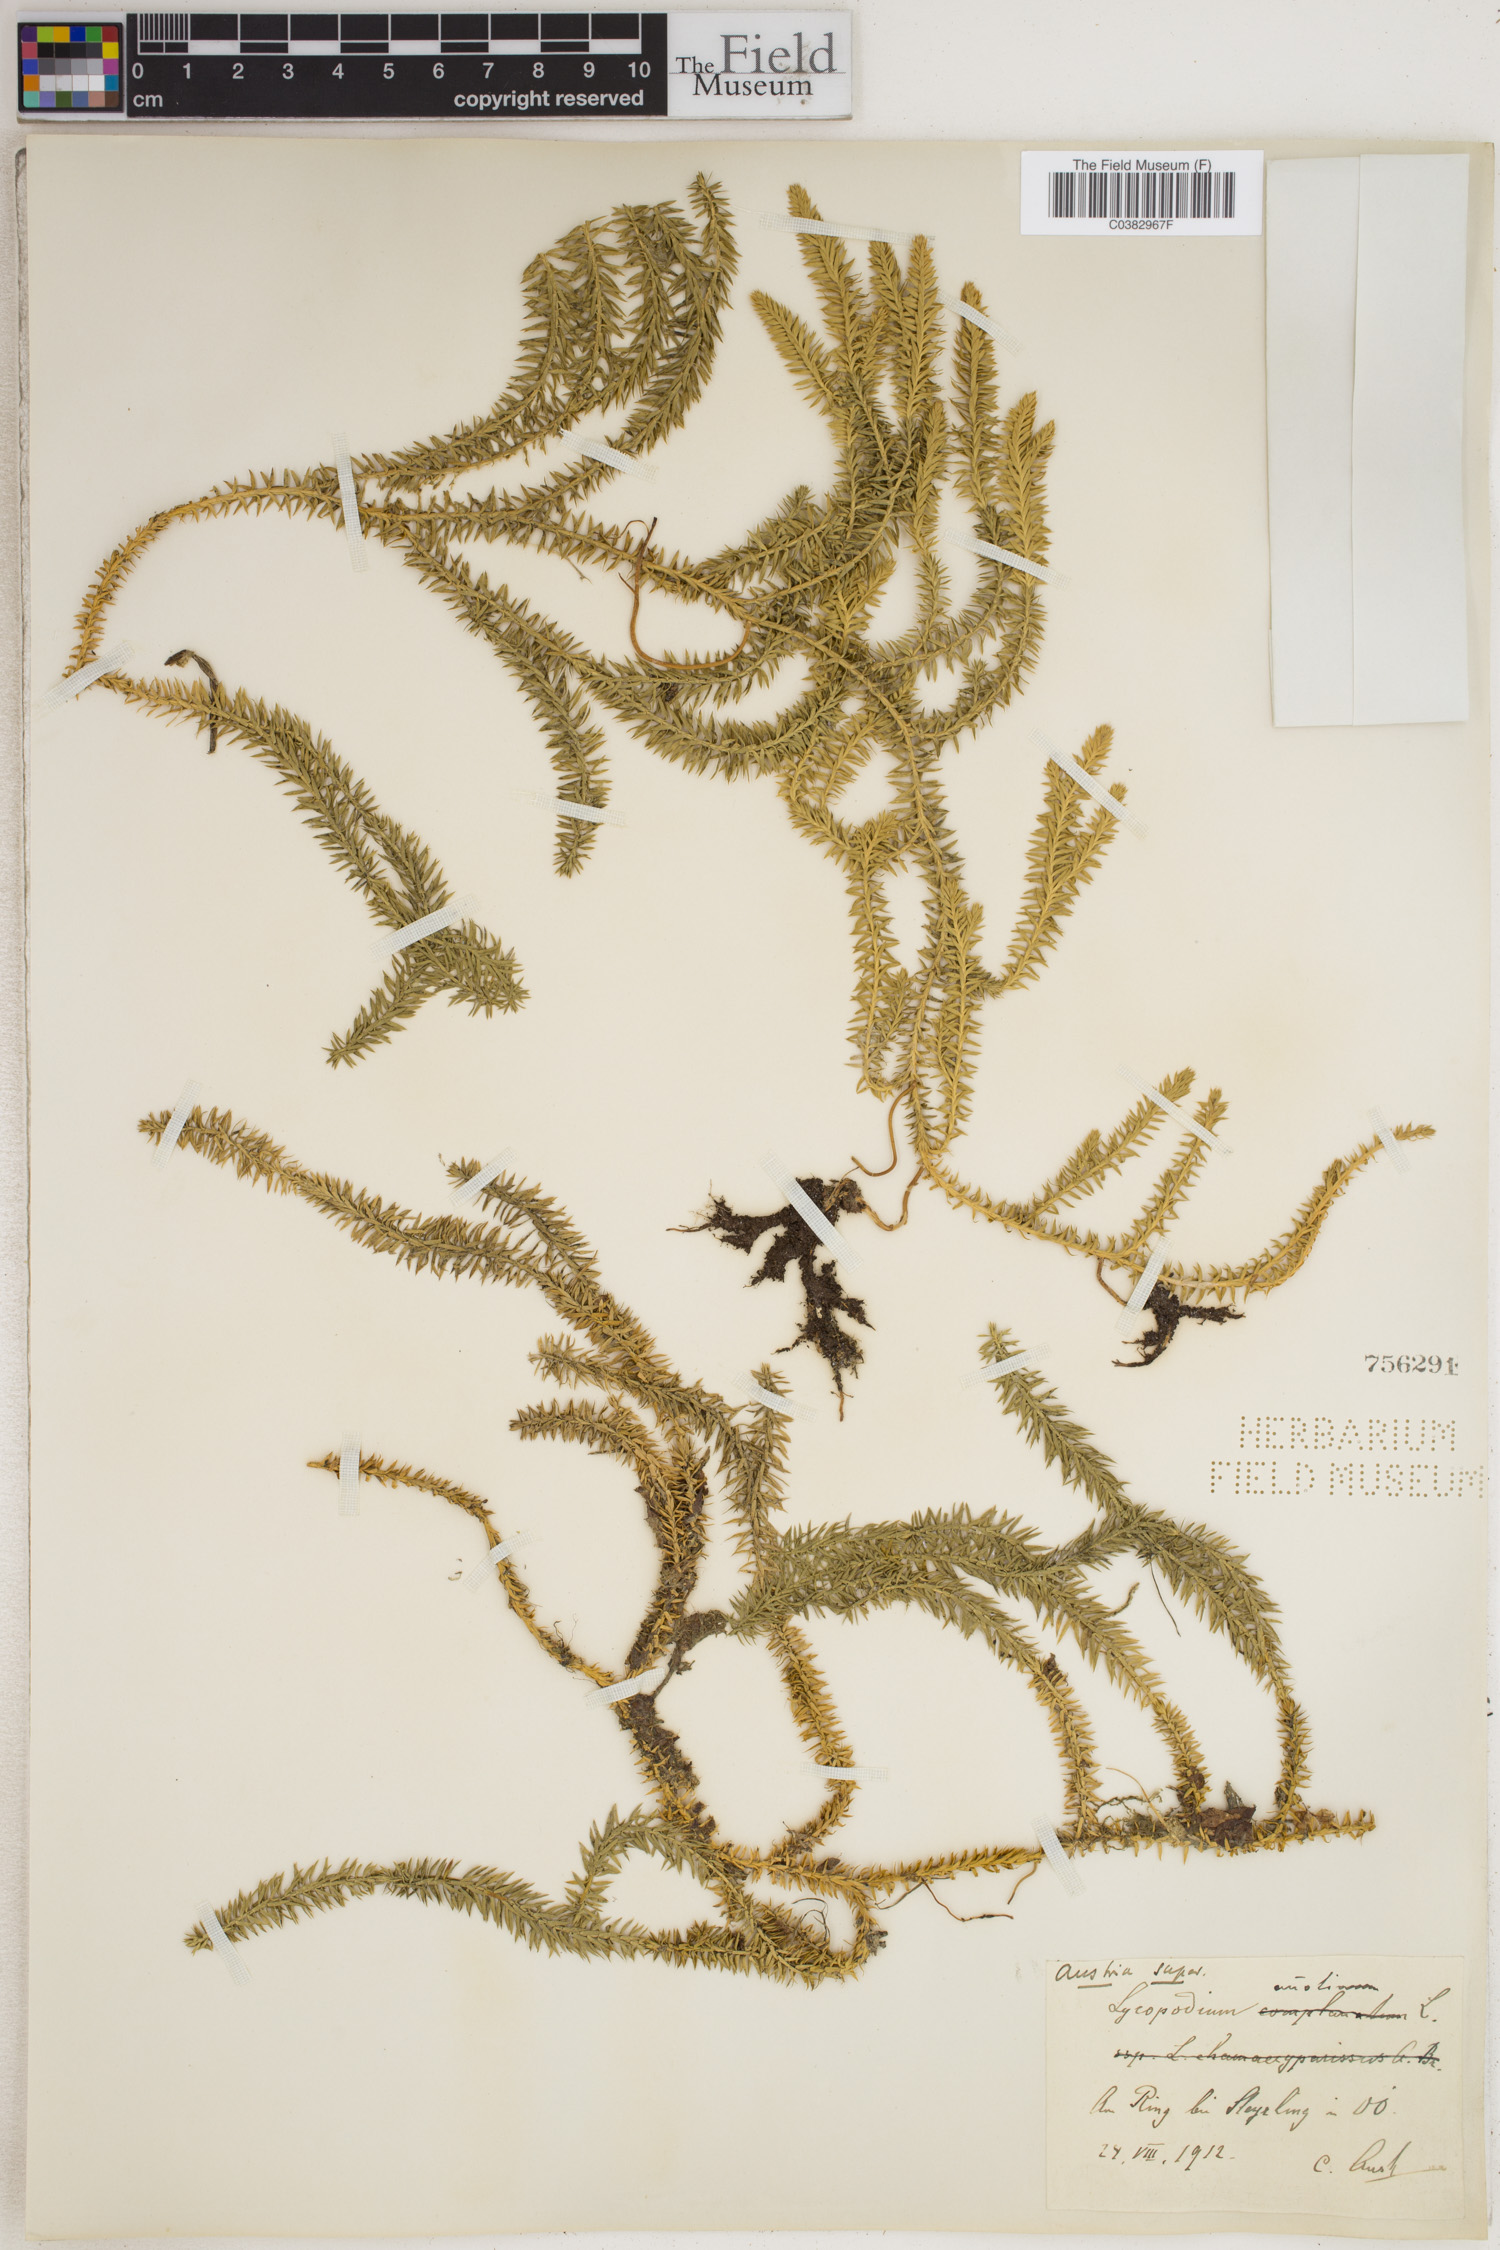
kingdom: Plantae
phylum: Tracheophyta
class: Lycopodiopsida
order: Lycopodiales
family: Lycopodiaceae
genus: Spinulum
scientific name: Spinulum annotinum
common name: Interrupted club-moss
